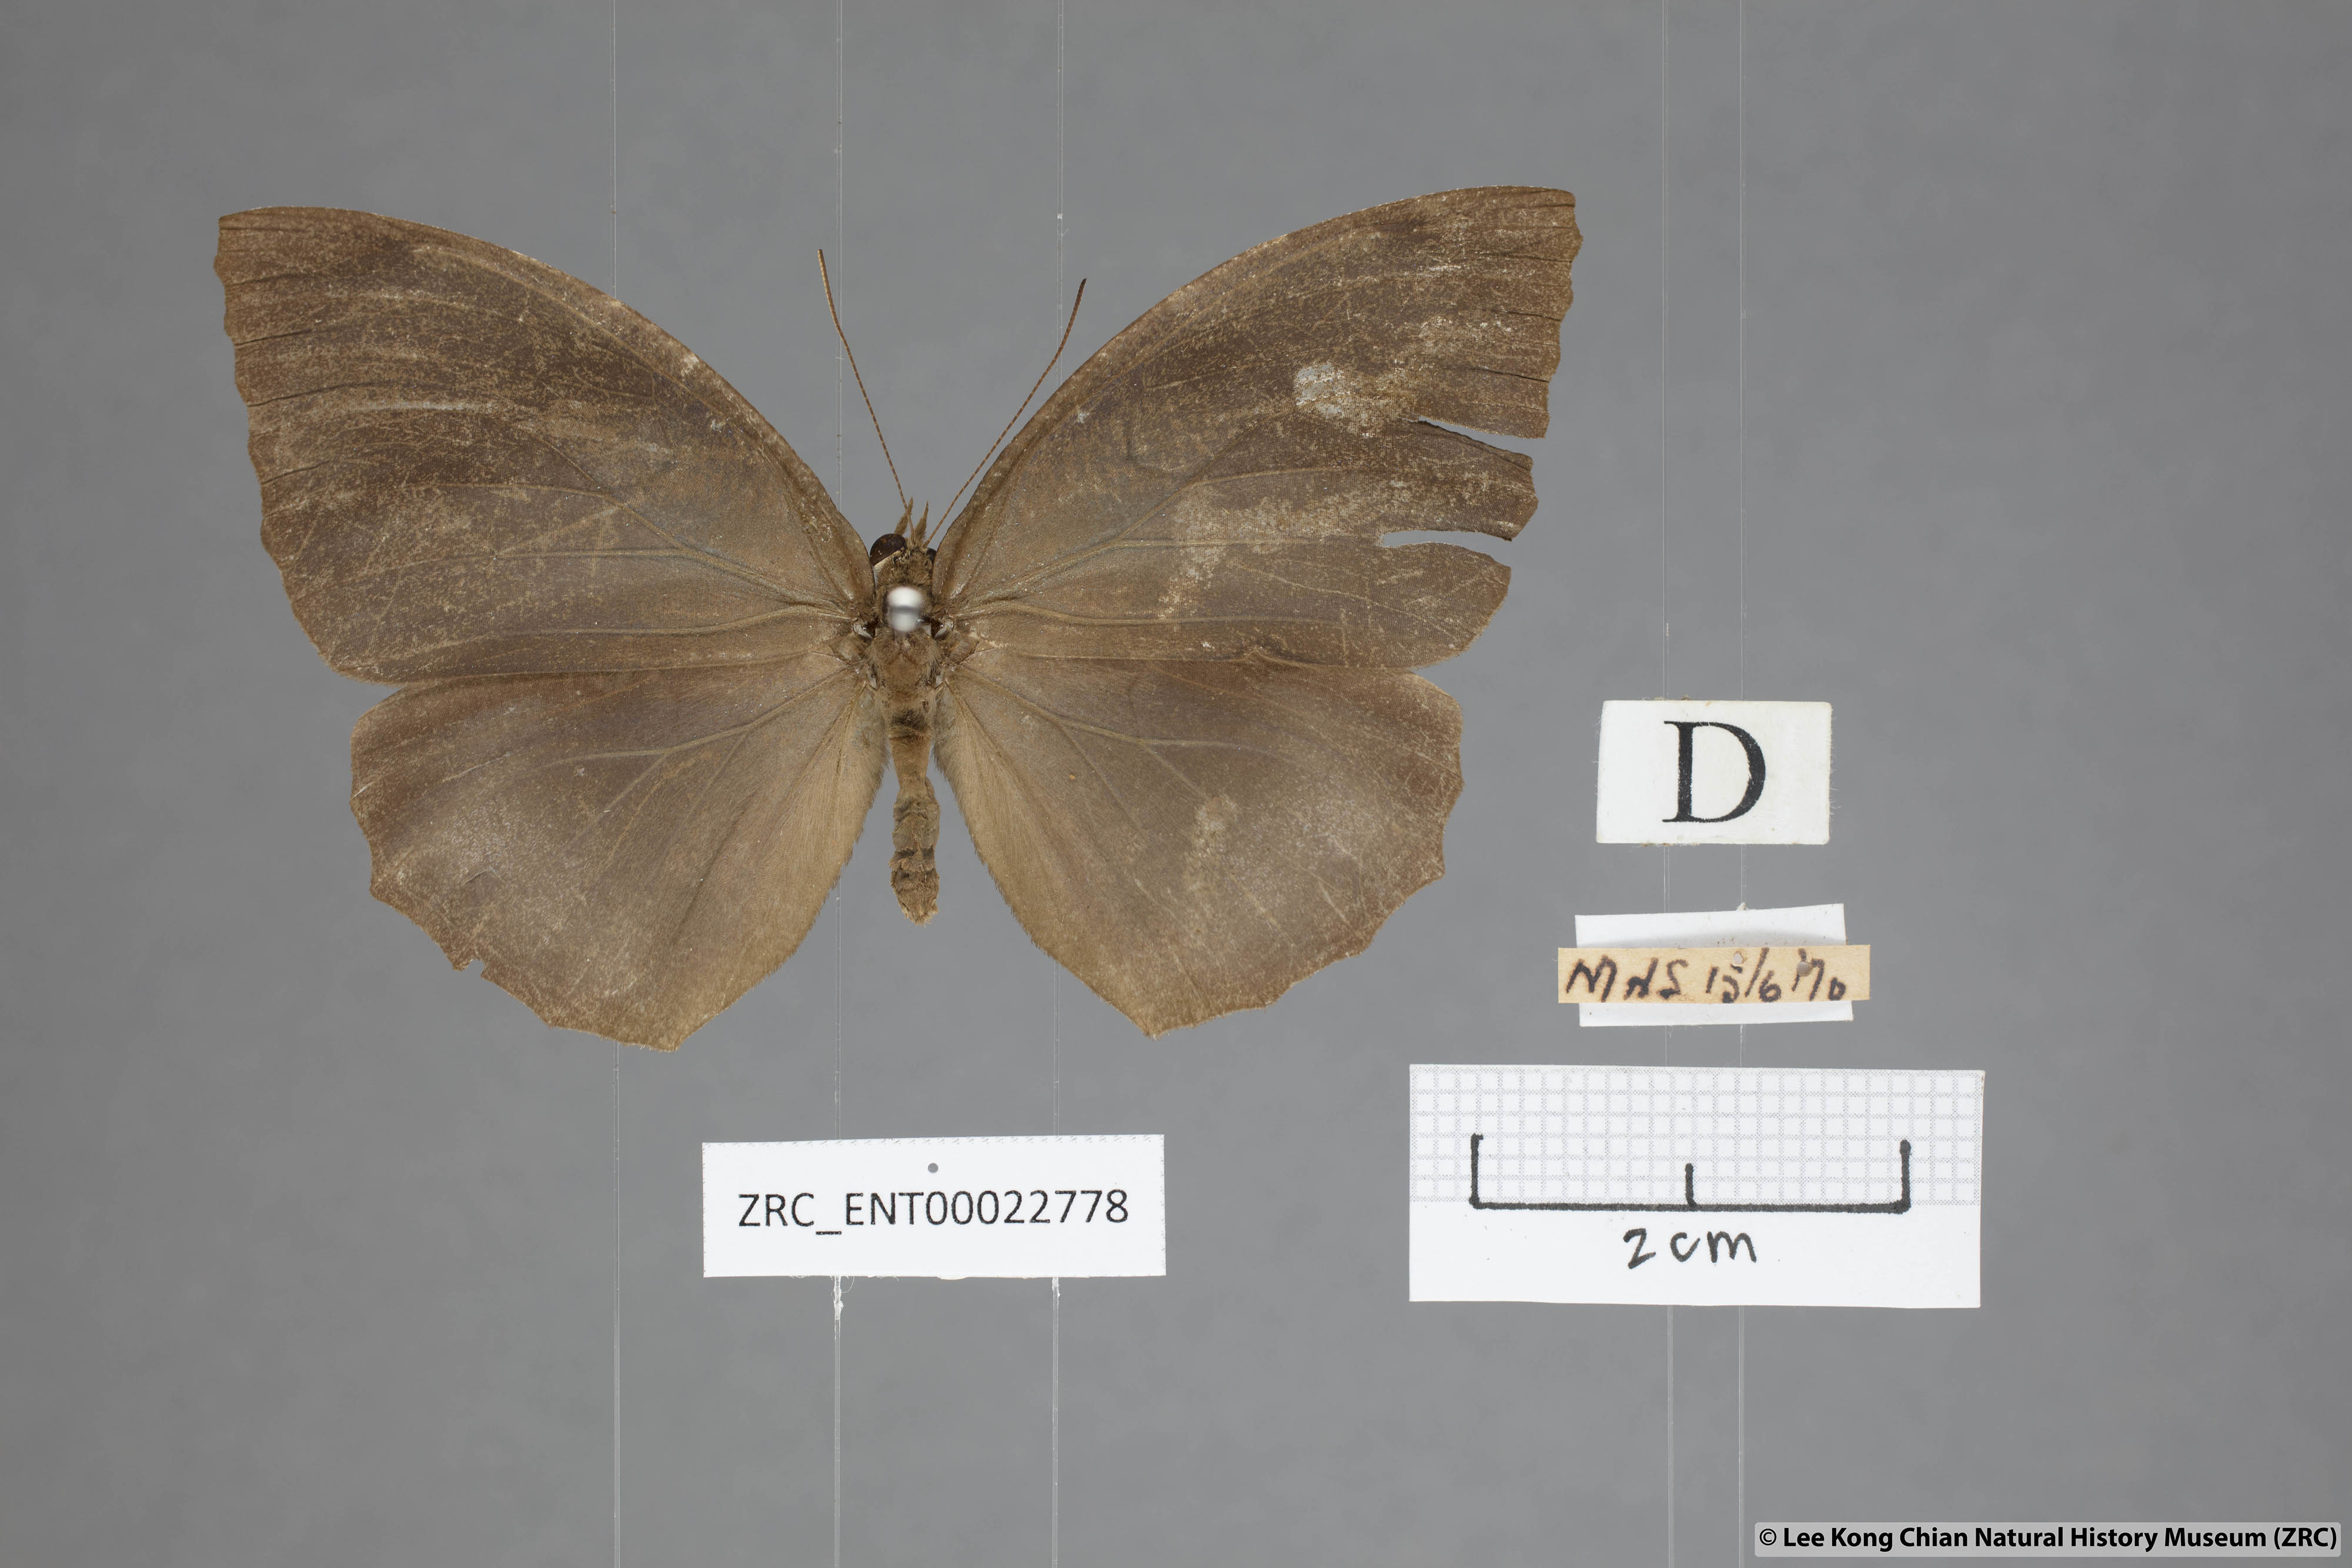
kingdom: Animalia
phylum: Arthropoda
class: Insecta
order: Lepidoptera
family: Nymphalidae
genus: Elymnias
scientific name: Elymnias penanga
